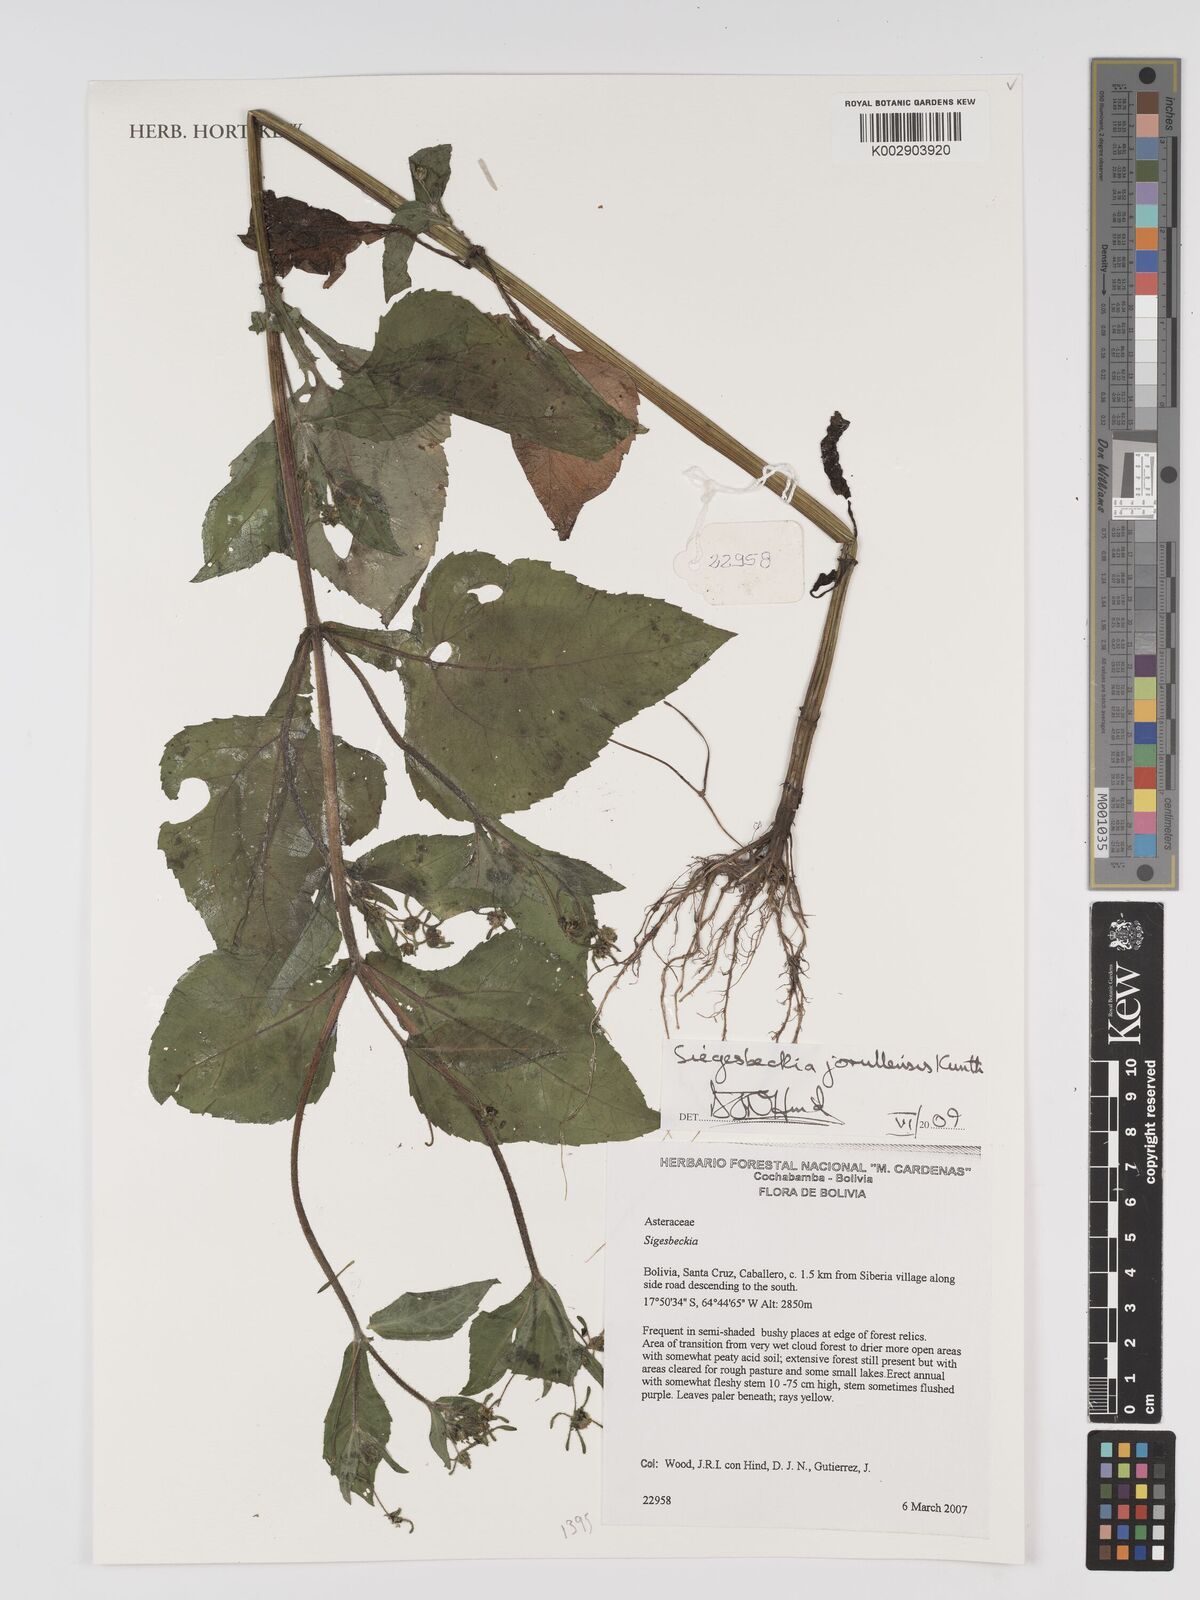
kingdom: Plantae
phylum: Tracheophyta
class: Magnoliopsida
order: Asterales
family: Asteraceae
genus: Sigesbeckia
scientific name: Sigesbeckia jorullensis
